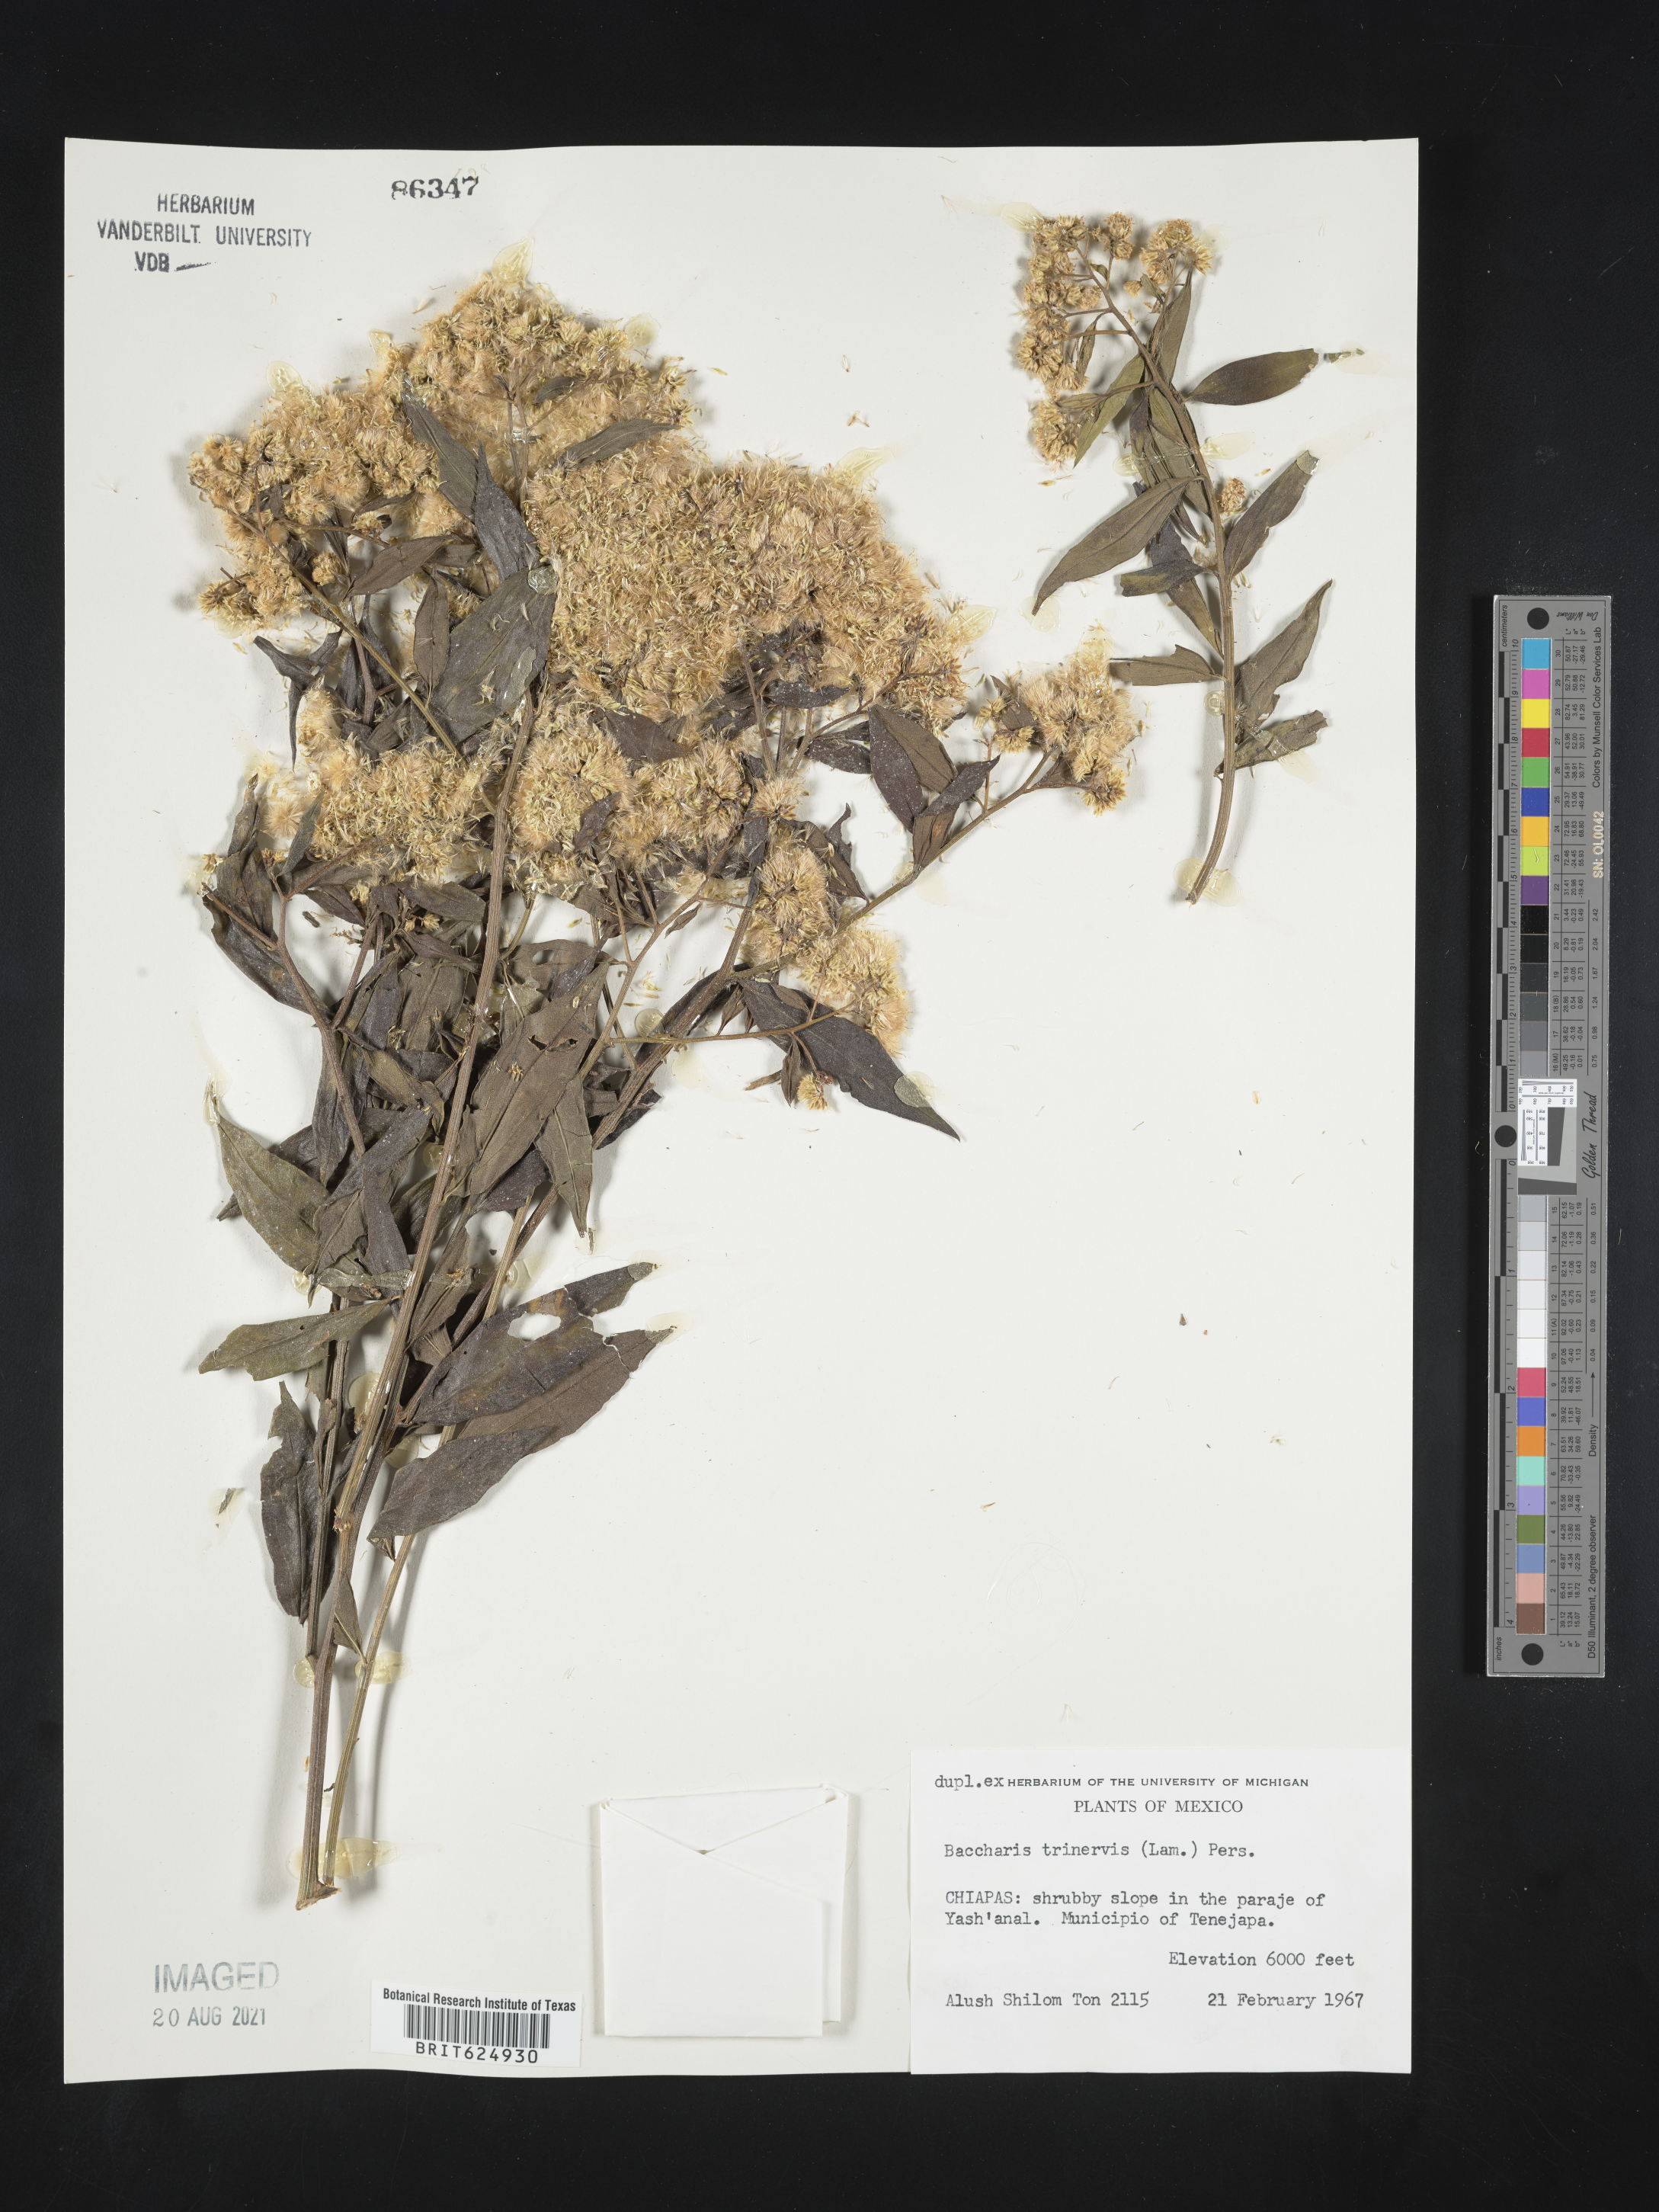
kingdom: Plantae
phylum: Tracheophyta
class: Magnoliopsida
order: Asterales
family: Asteraceae
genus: Baccharis
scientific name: Baccharis
